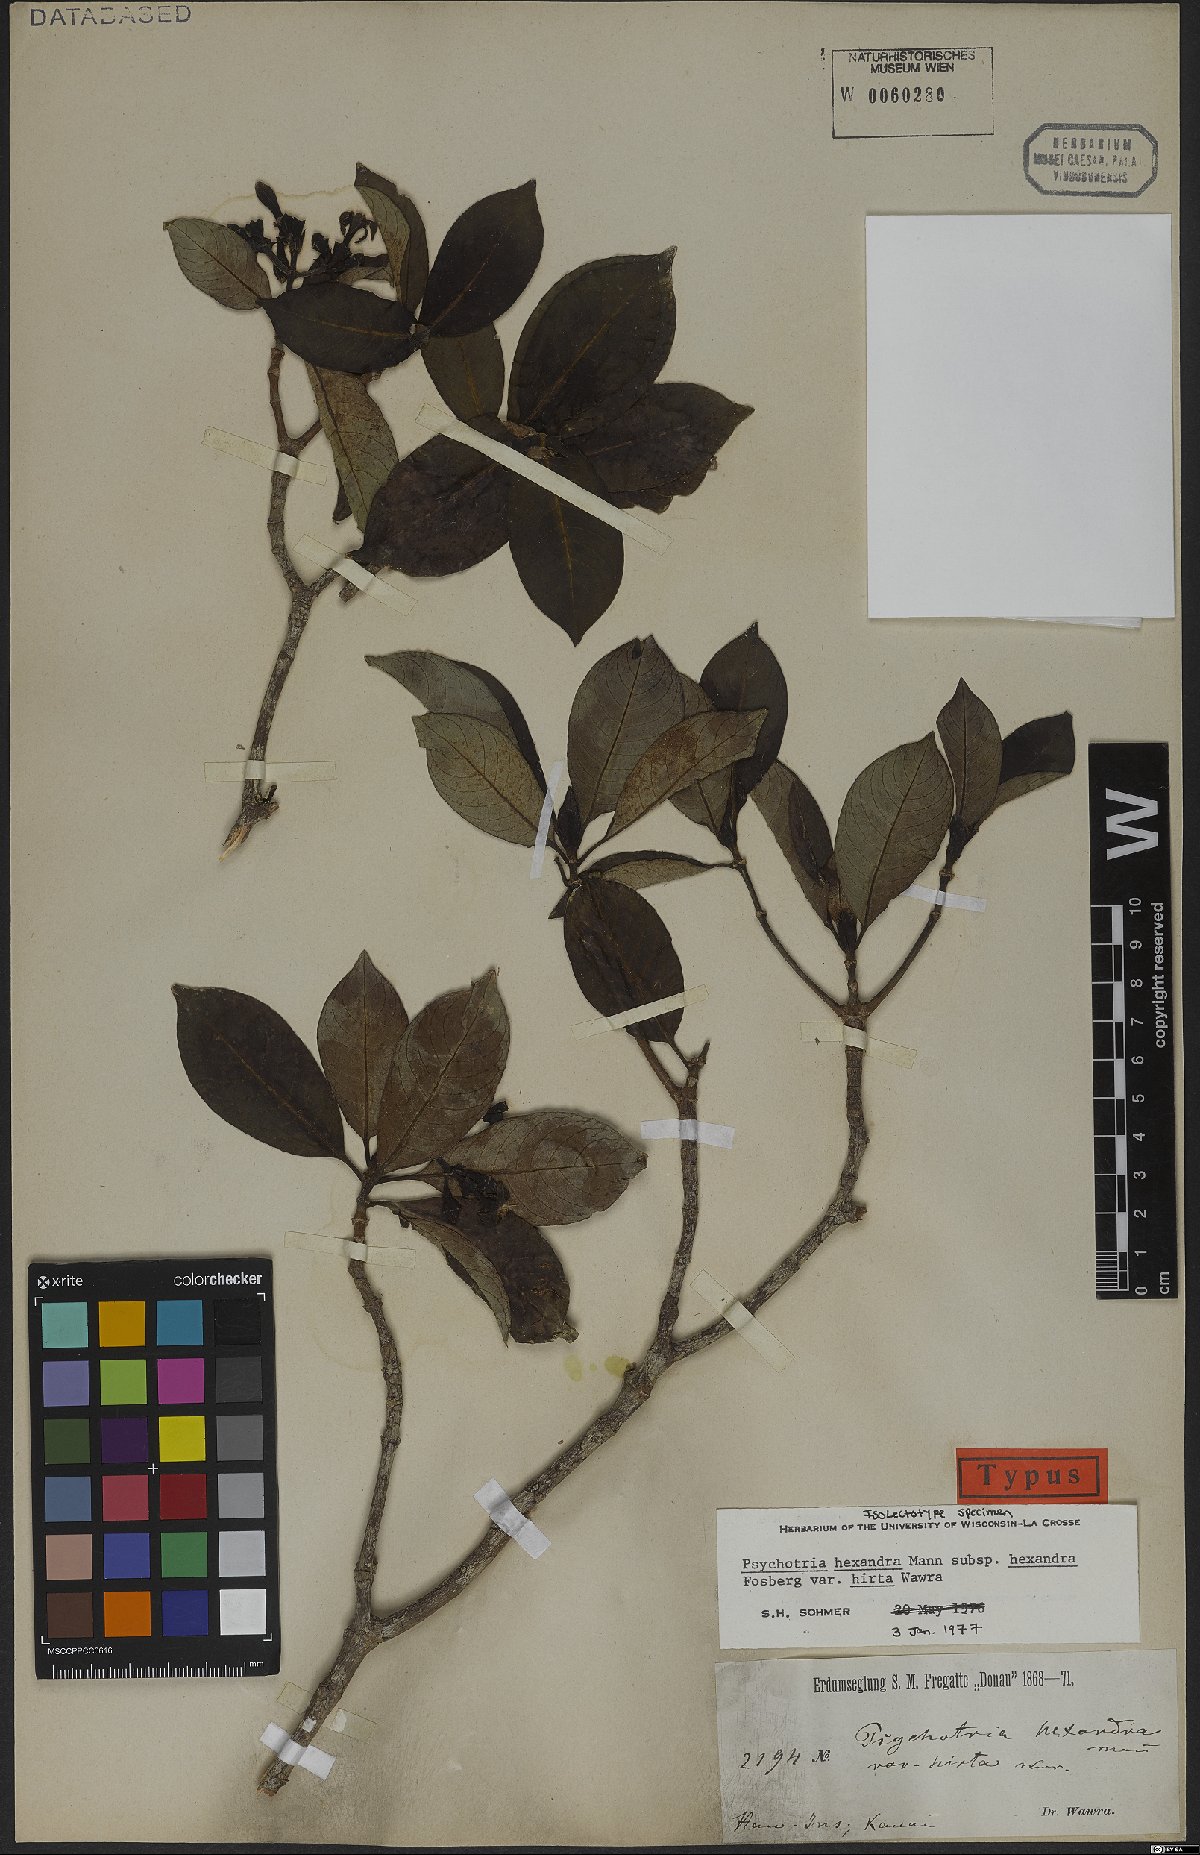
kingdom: Plantae
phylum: Tracheophyta
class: Magnoliopsida
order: Gentianales
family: Rubiaceae
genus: Psychotria
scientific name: Psychotria hexandra
